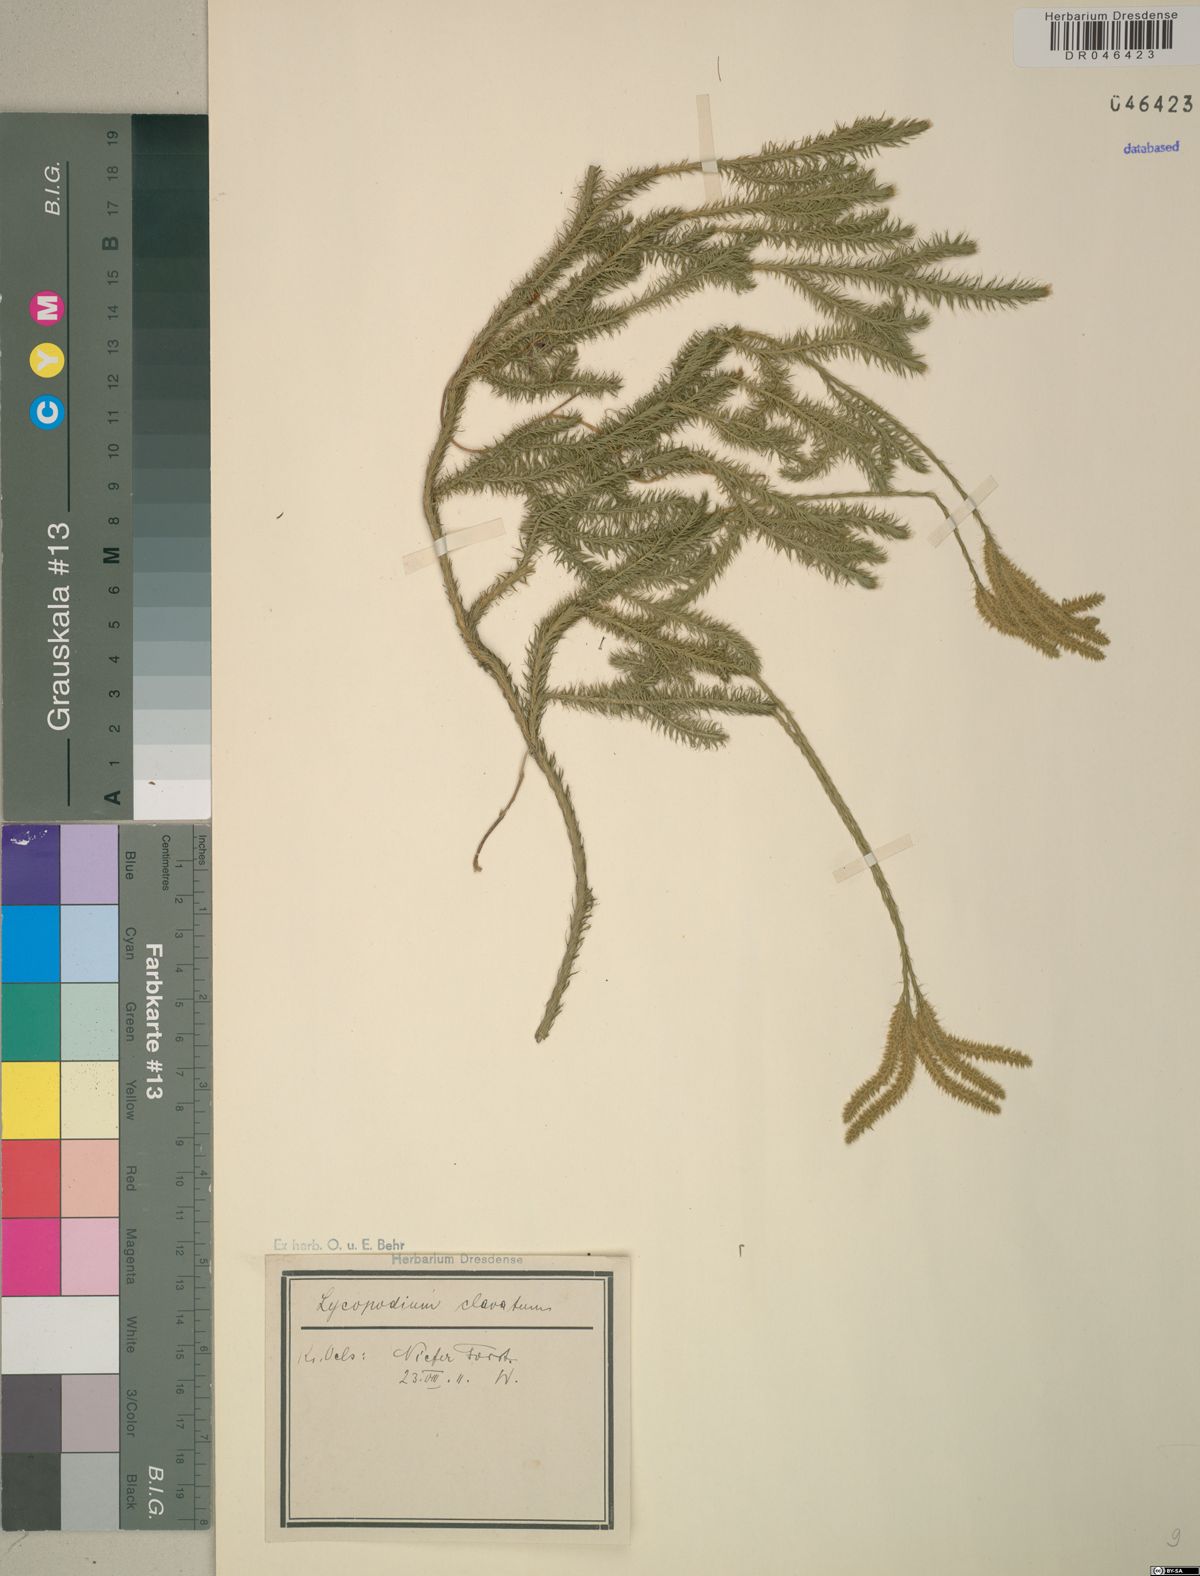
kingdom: Plantae
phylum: Tracheophyta
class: Lycopodiopsida
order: Lycopodiales
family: Lycopodiaceae
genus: Lycopodium
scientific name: Lycopodium clavatum
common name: Stag's-horn clubmoss
